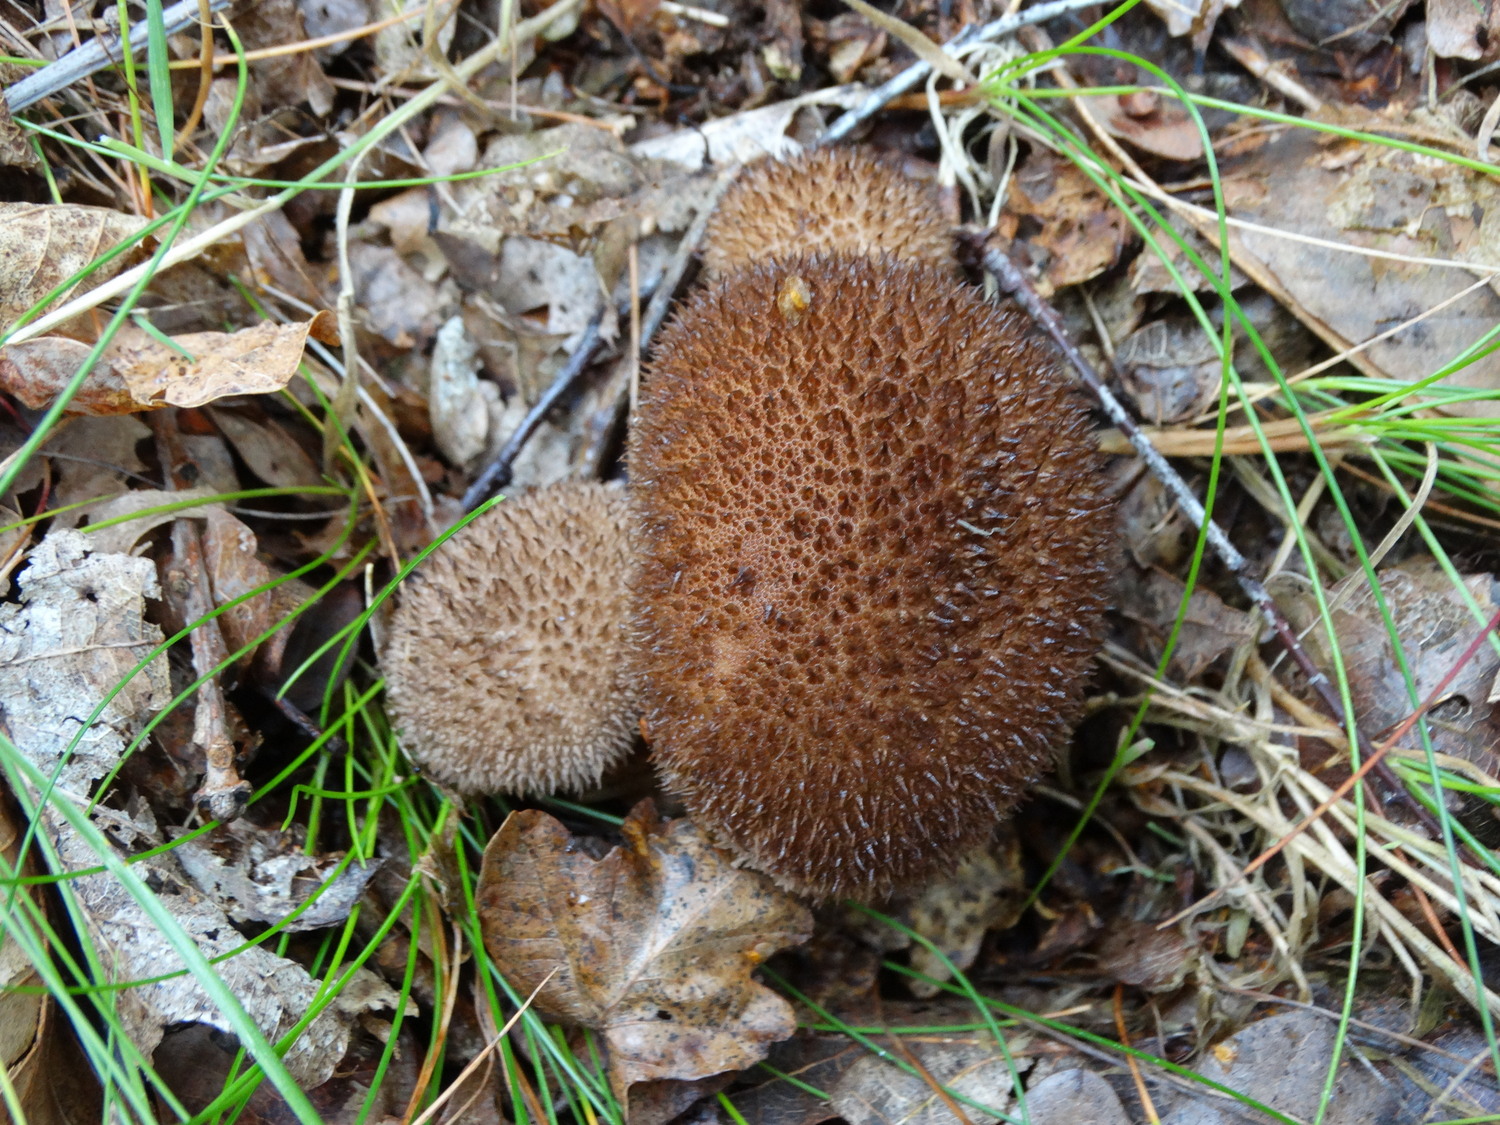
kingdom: Fungi
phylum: Basidiomycota
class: Agaricomycetes
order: Agaricales
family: Lycoperdaceae
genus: Lycoperdon
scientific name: Lycoperdon nigrescens
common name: sortagtig støvbold
